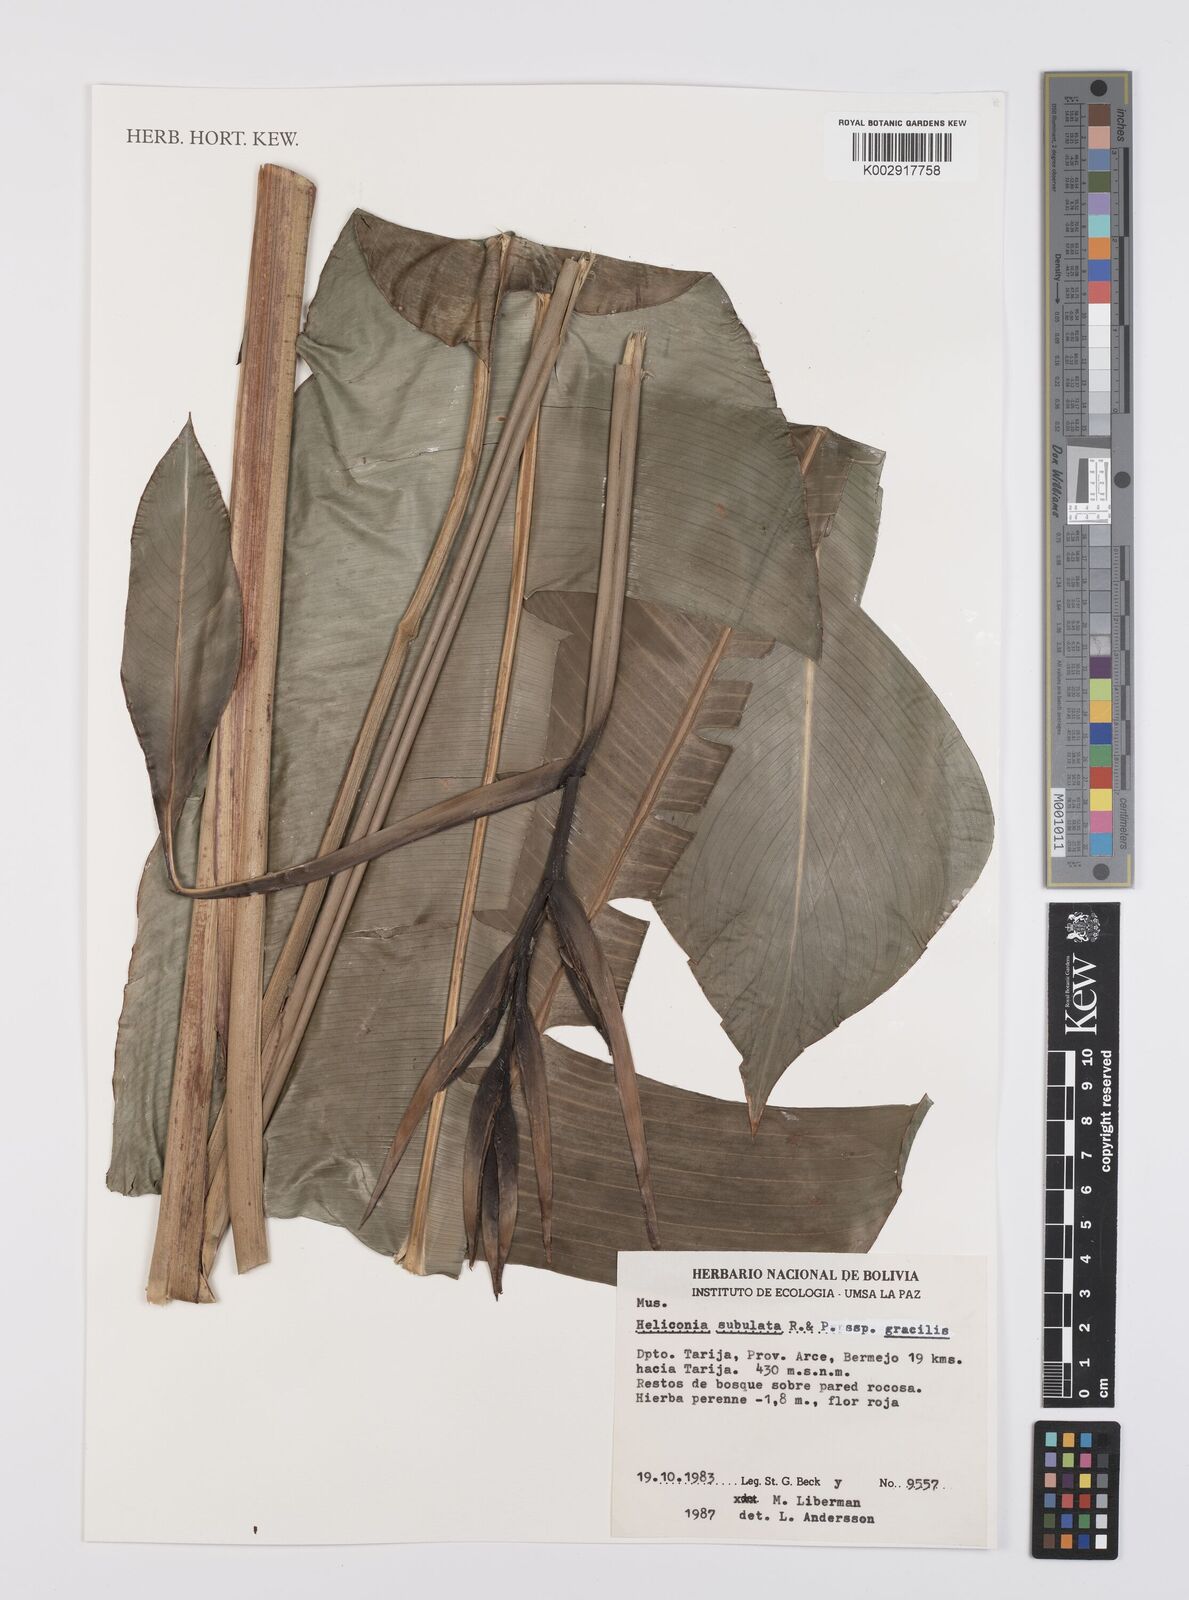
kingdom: Plantae
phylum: Tracheophyta
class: Liliopsida
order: Zingiberales
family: Heliconiaceae
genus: Heliconia
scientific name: Heliconia subulata
